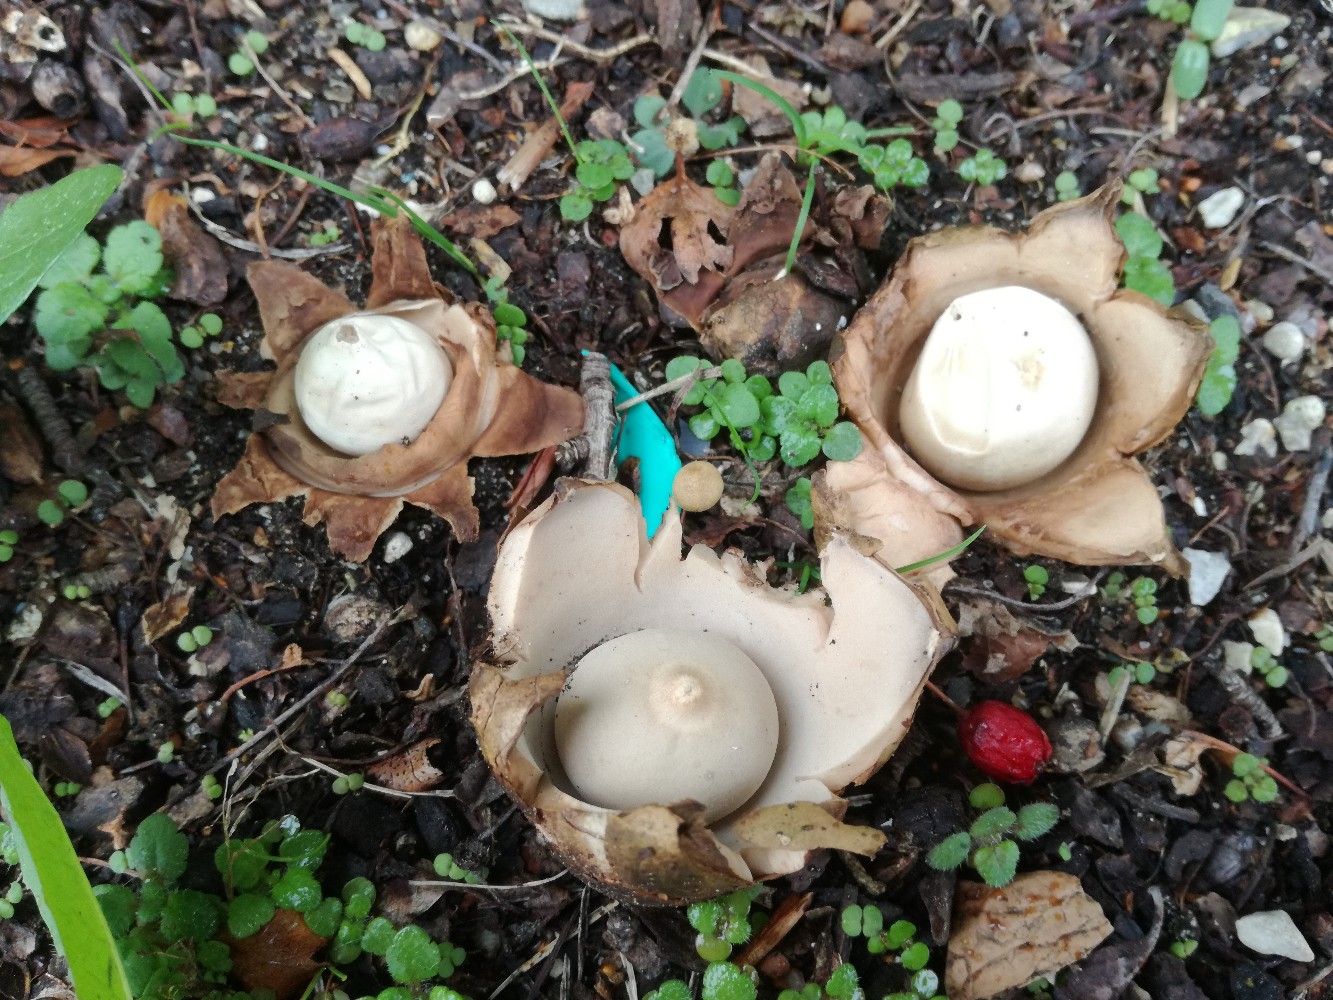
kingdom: Fungi
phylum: Basidiomycota
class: Agaricomycetes
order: Geastrales
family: Geastraceae
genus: Geastrum
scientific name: Geastrum michelianum
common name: kødet stjernebold
